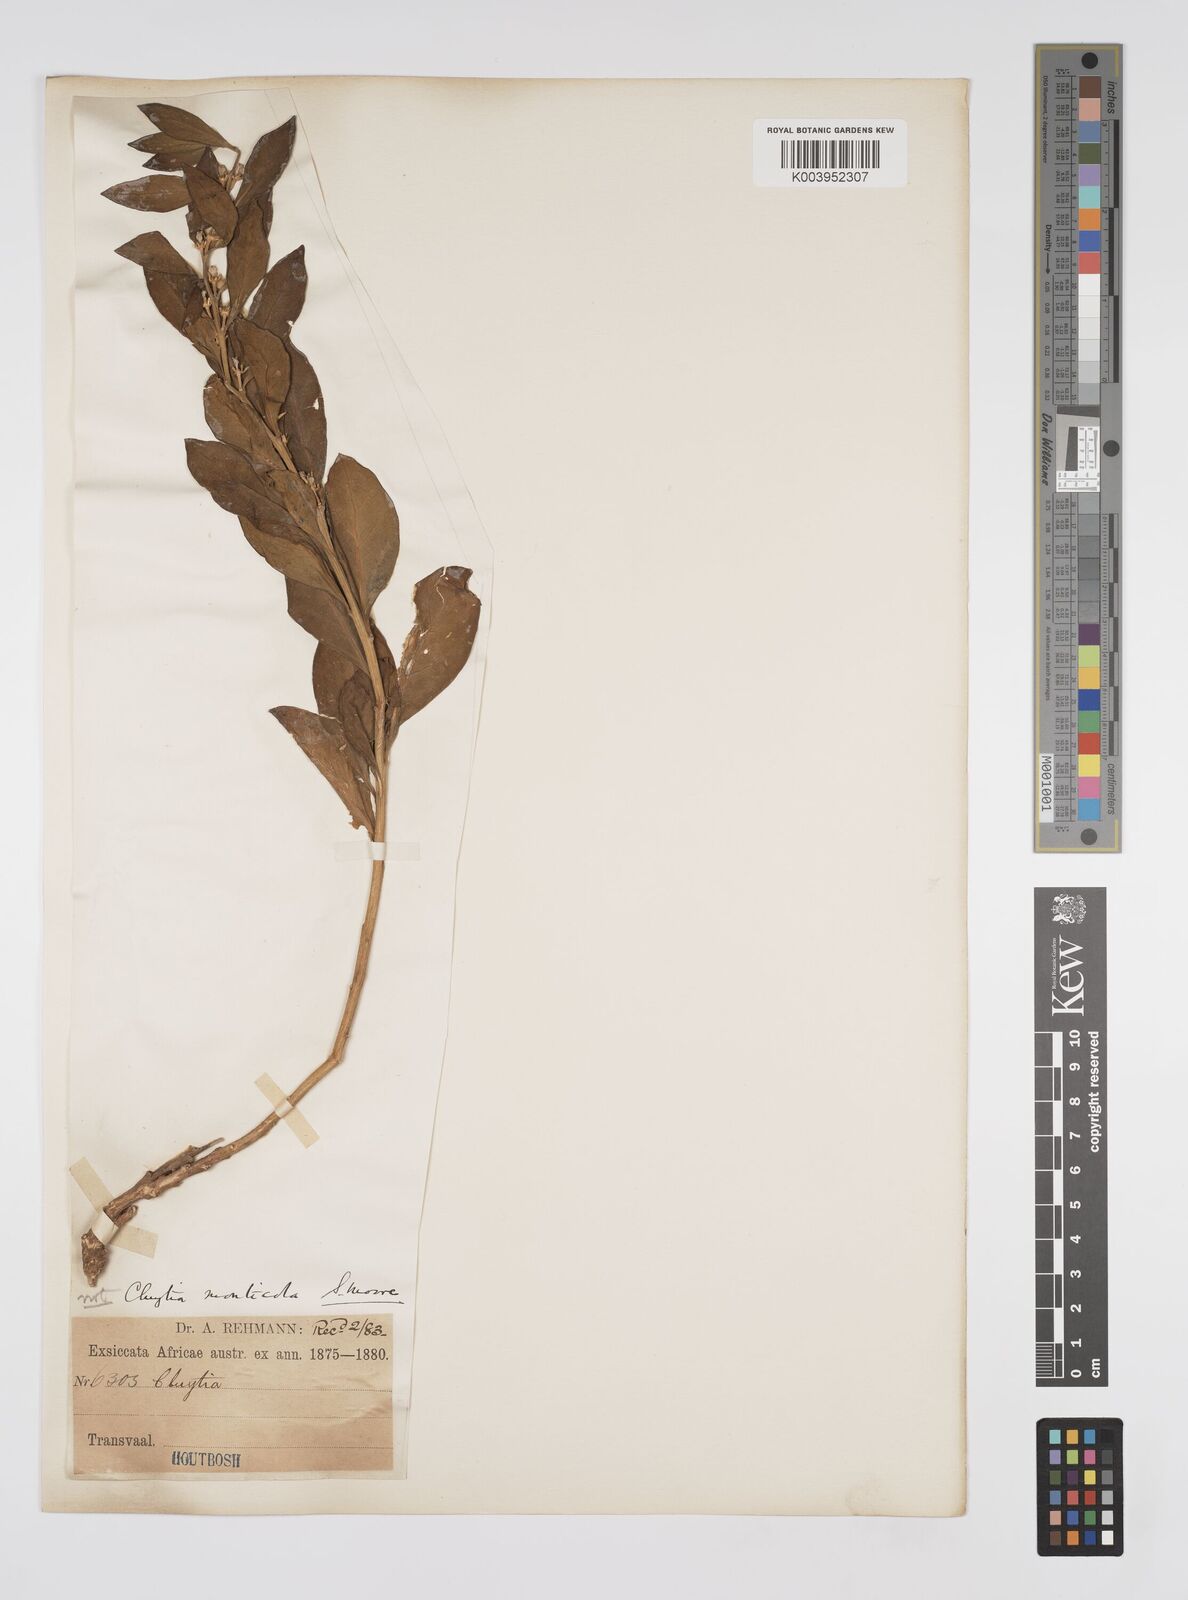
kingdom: Plantae
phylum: Tracheophyta
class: Magnoliopsida
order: Malpighiales
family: Peraceae
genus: Clutia
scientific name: Clutia
